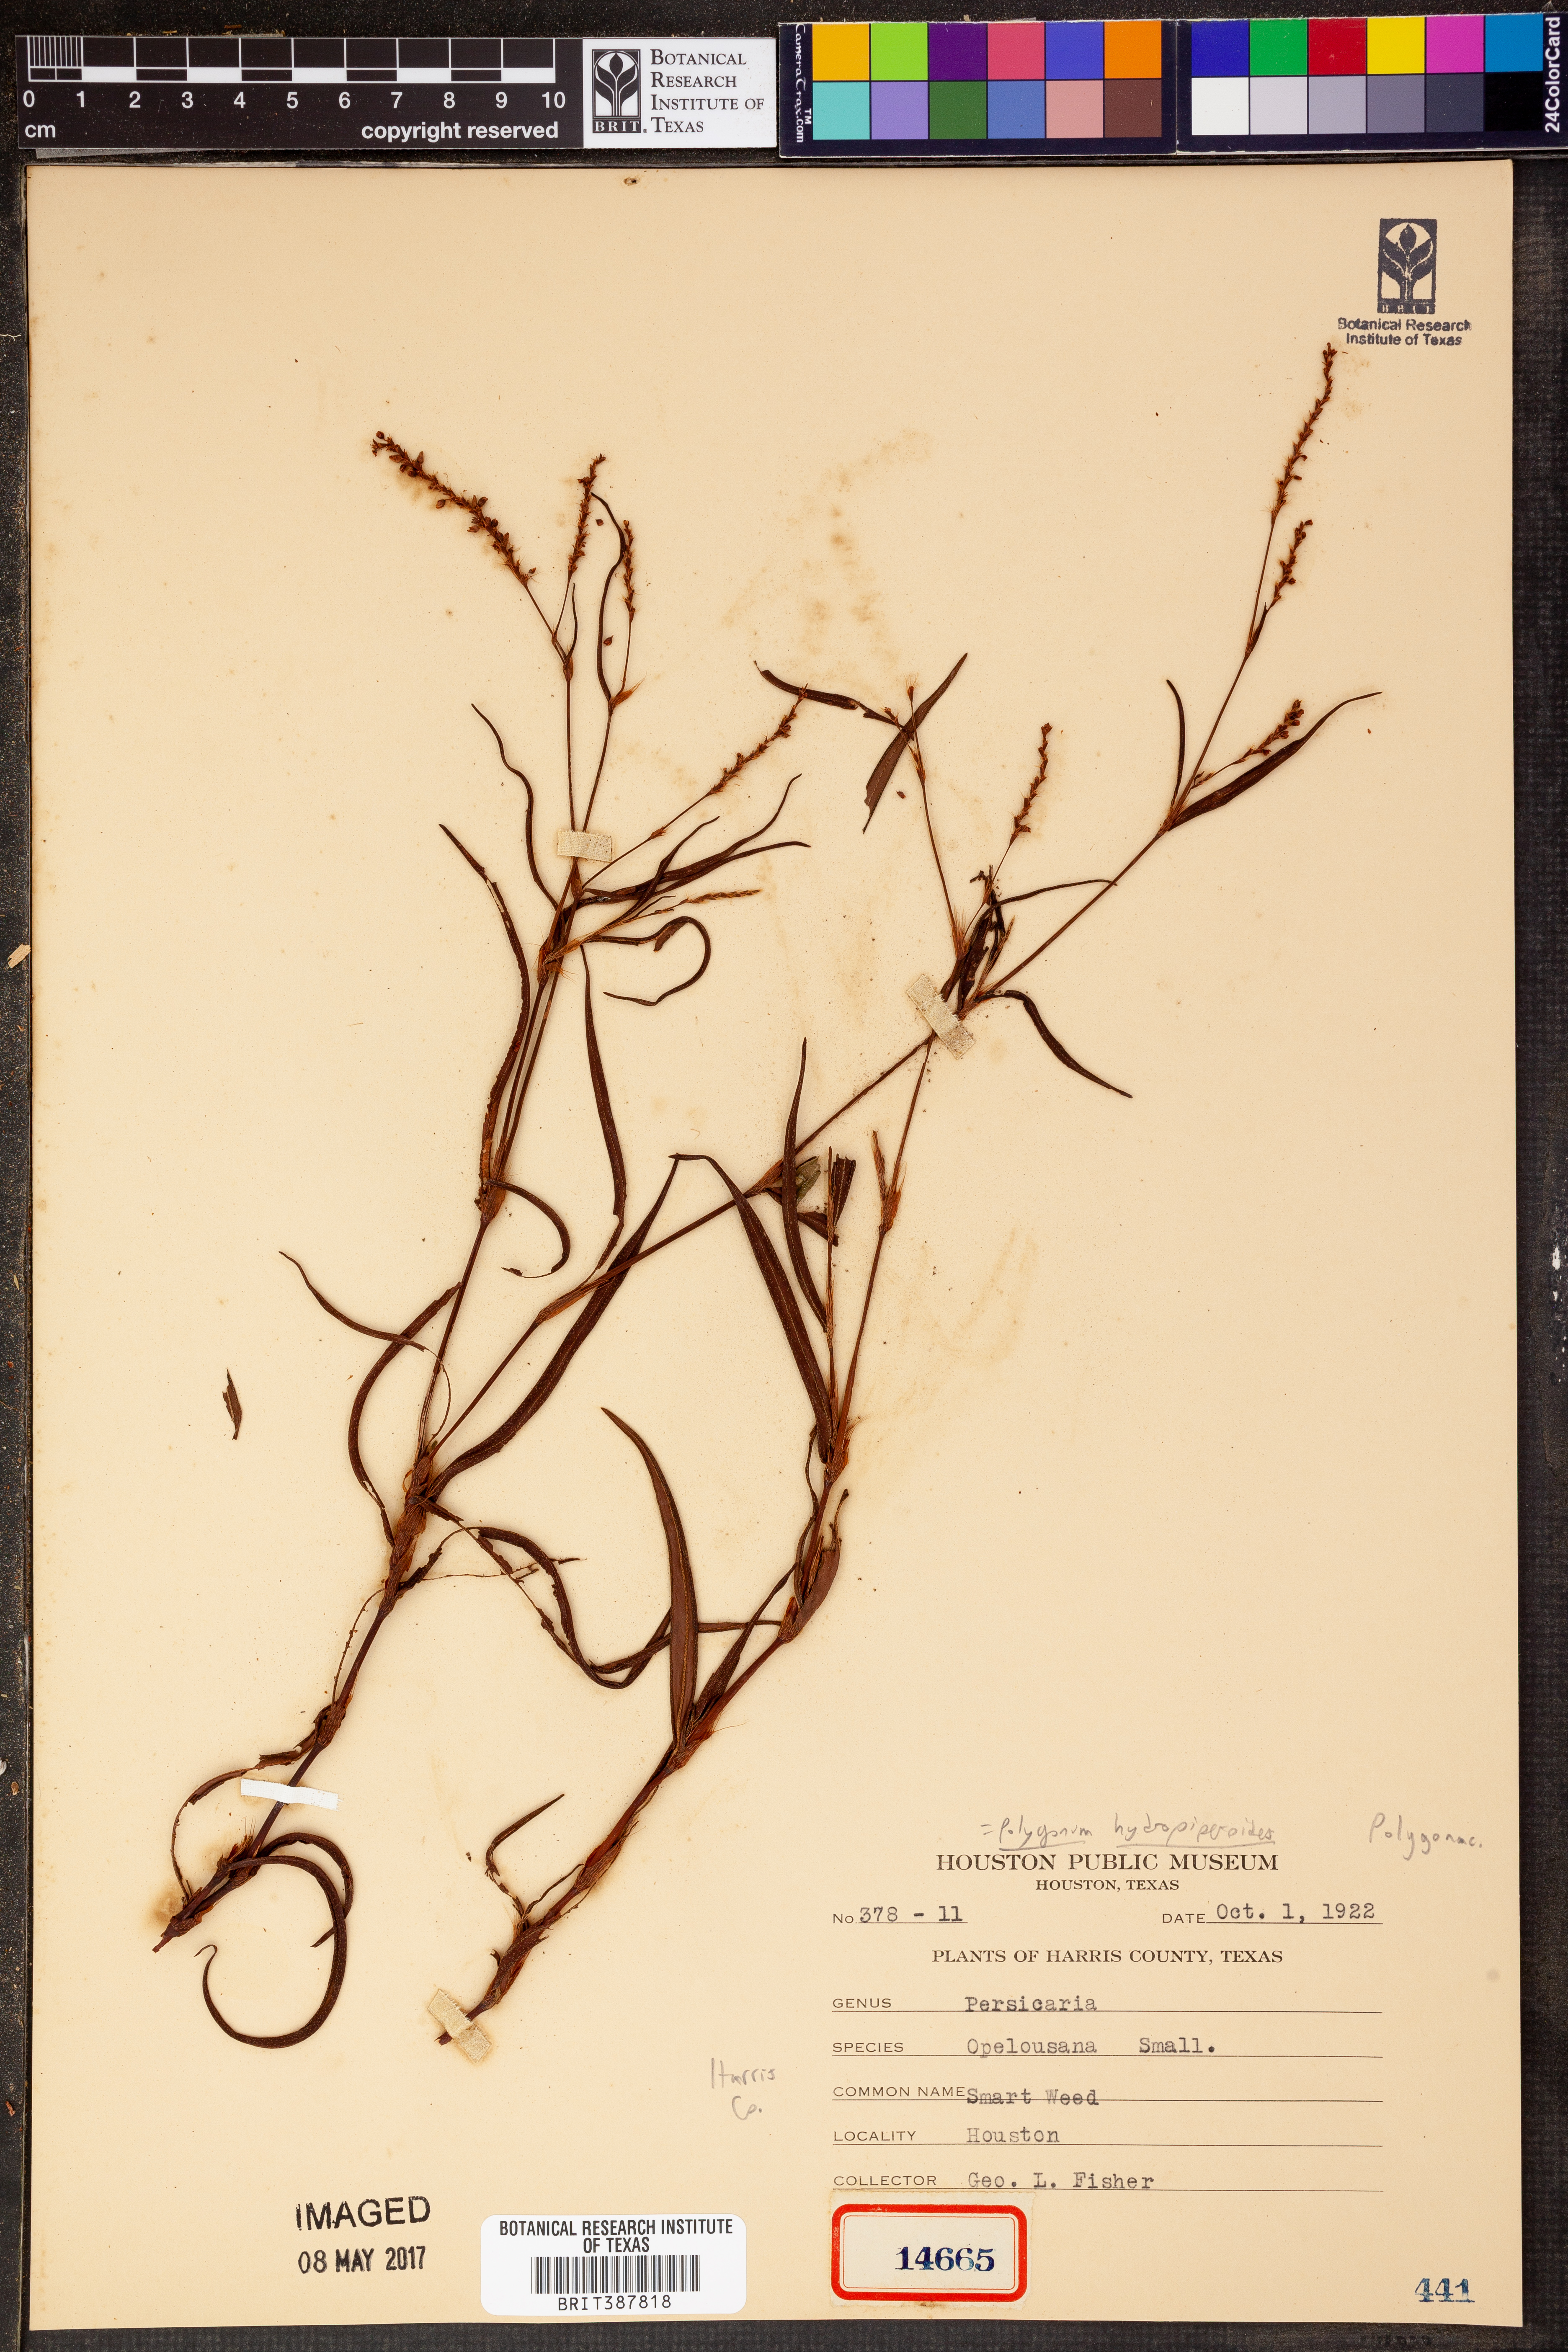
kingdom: Plantae
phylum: Tracheophyta
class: Magnoliopsida
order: Caryophyllales
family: Polygonaceae
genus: Persicaria
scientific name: Persicaria hydropiperoides
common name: Swamp smartweed
